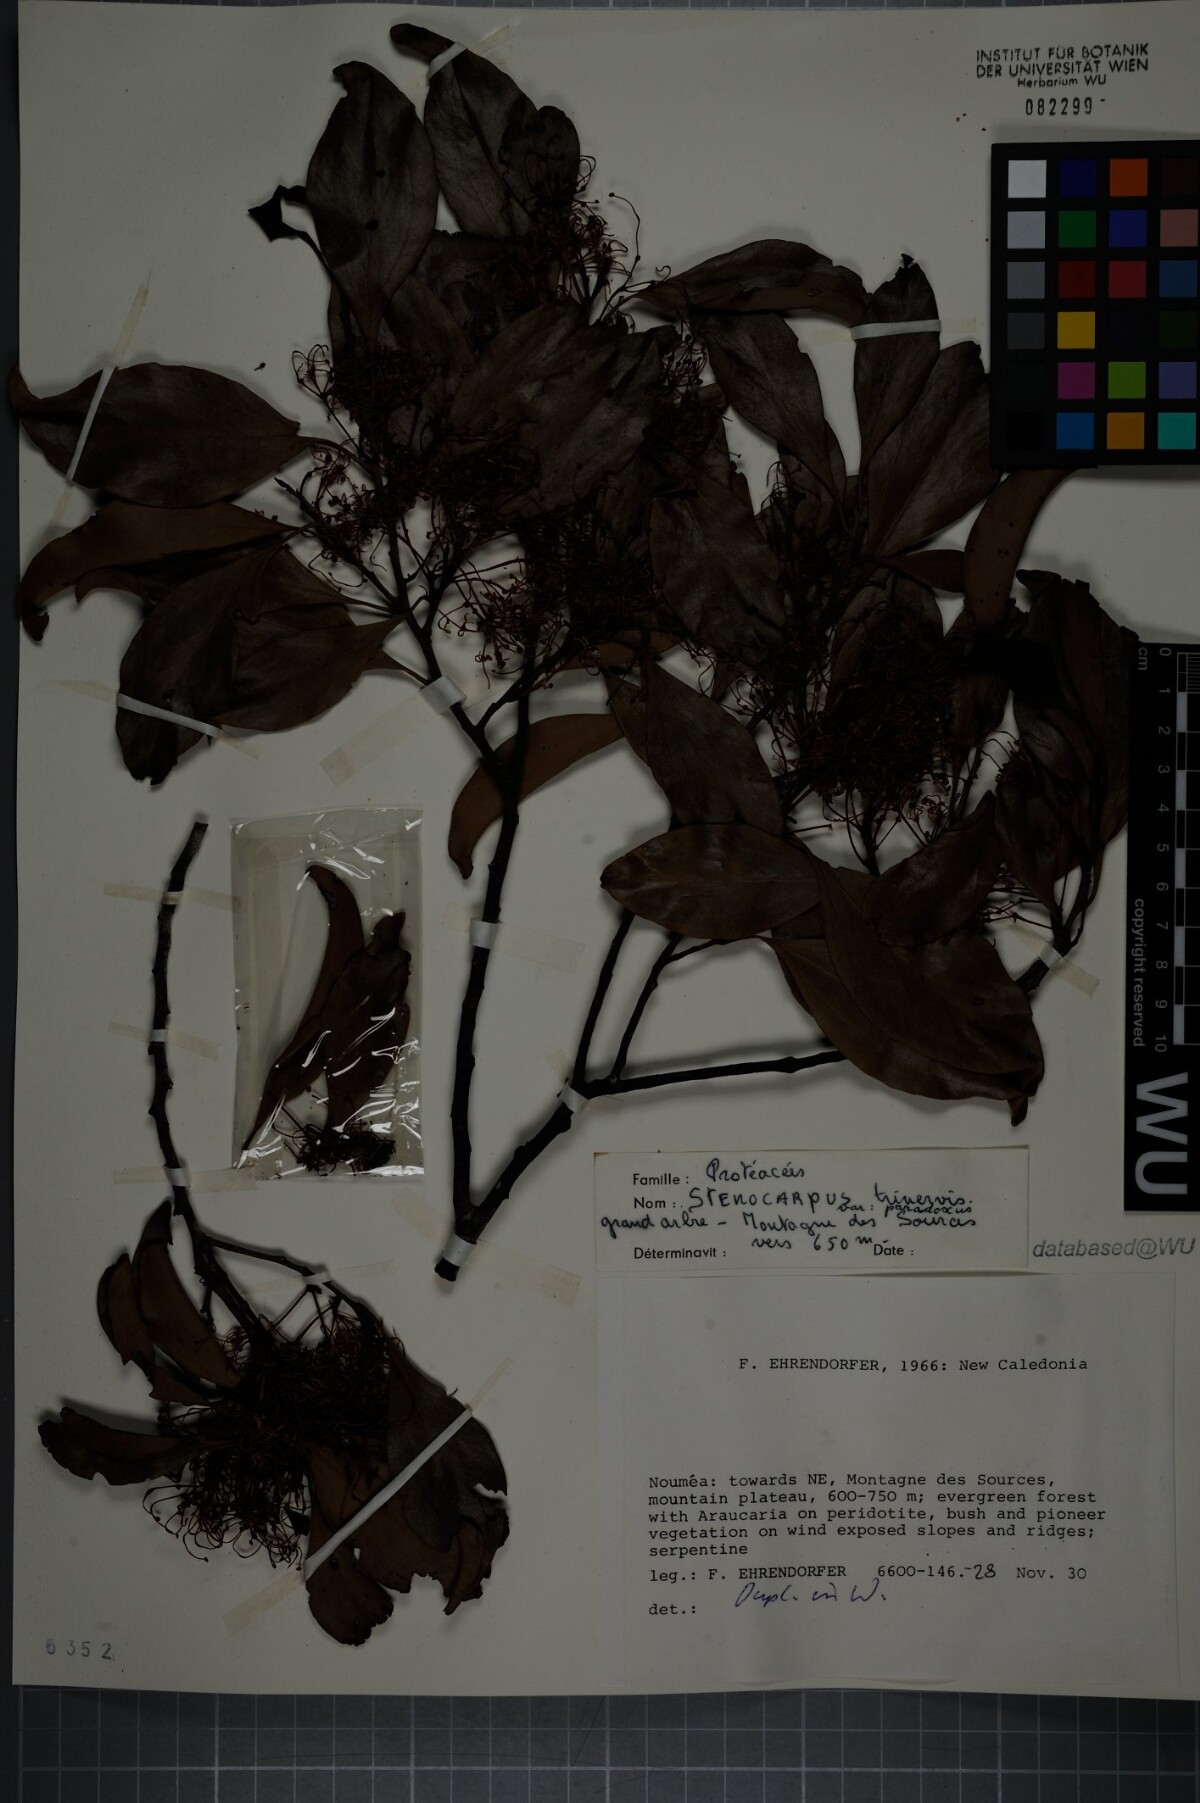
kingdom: Plantae
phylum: Tracheophyta
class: Magnoliopsida
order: Proteales
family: Proteaceae
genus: Stenocarpus
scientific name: Stenocarpus trinervis
